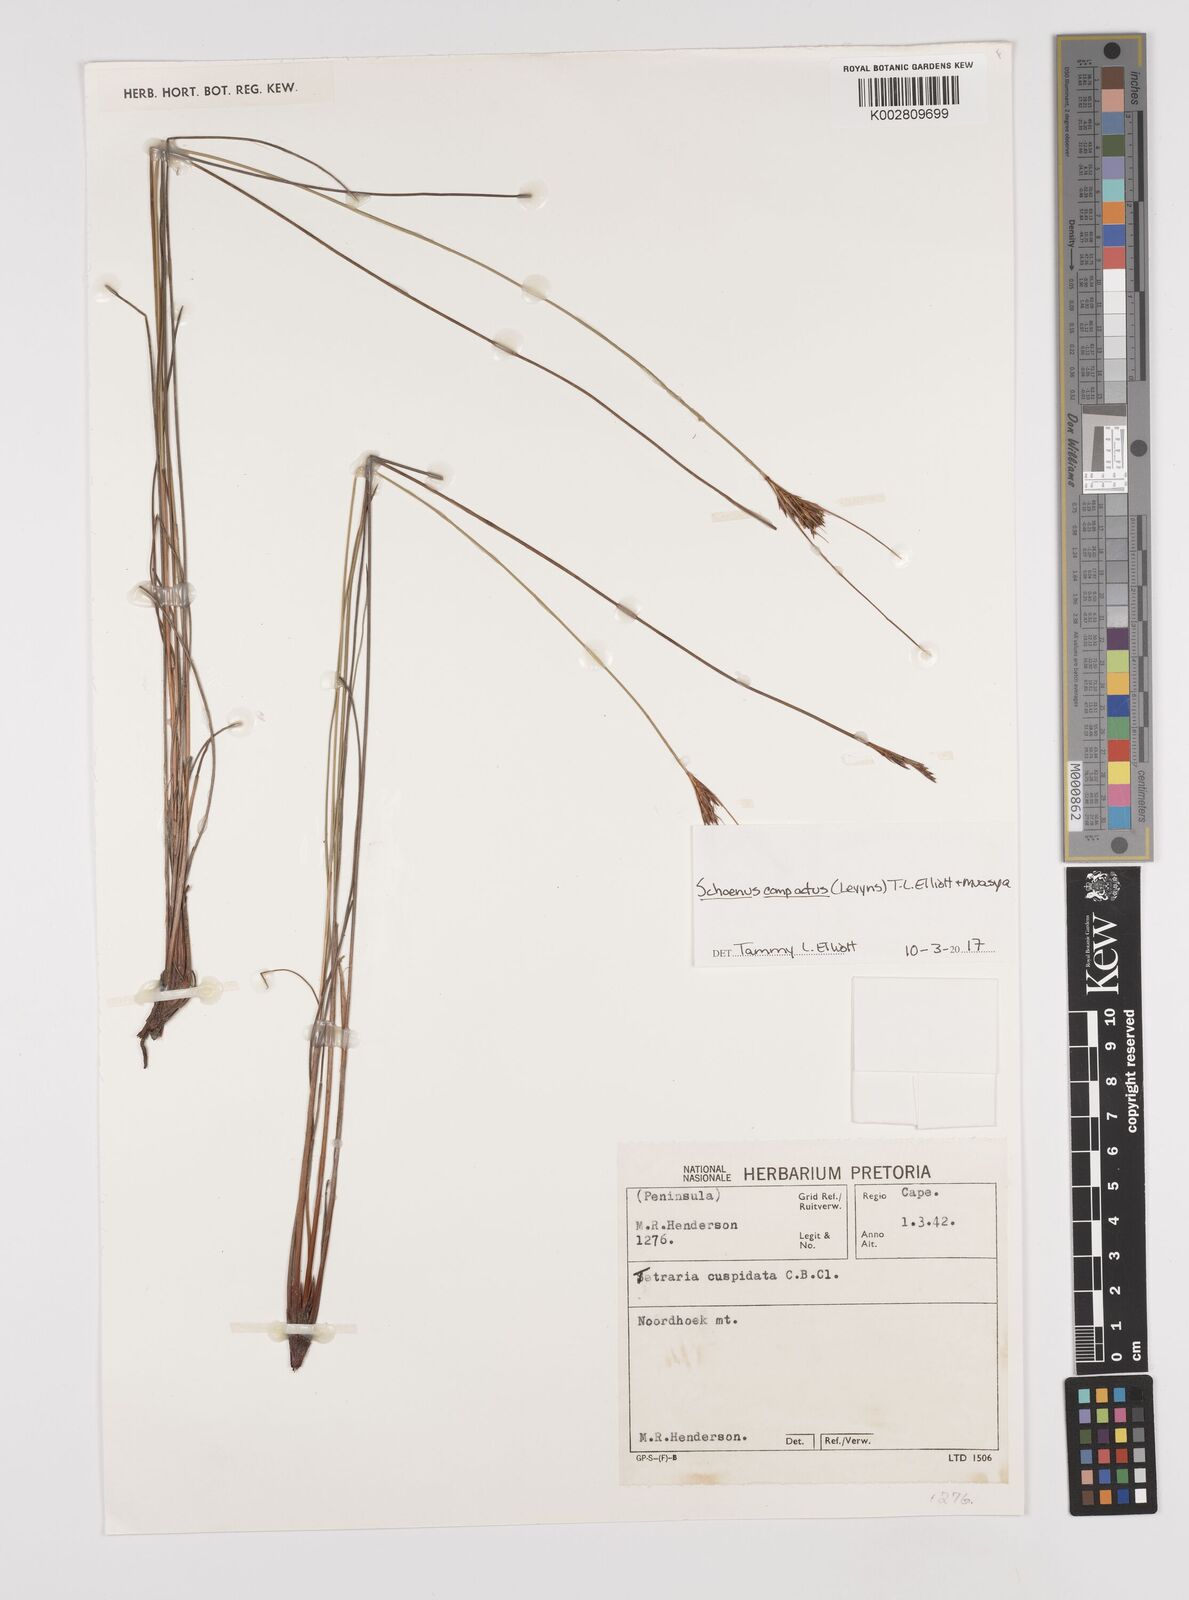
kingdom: Plantae
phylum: Tracheophyta
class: Liliopsida
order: Poales
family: Cyperaceae
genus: Schoenus
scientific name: Schoenus compactus
